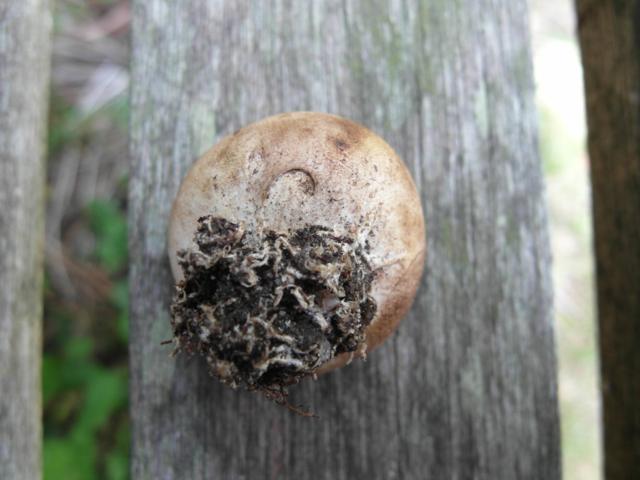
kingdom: Fungi
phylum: Basidiomycota
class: Agaricomycetes
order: Boletales
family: Sclerodermataceae
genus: Scleroderma
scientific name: Scleroderma bovista
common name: bovist-bruskbold
